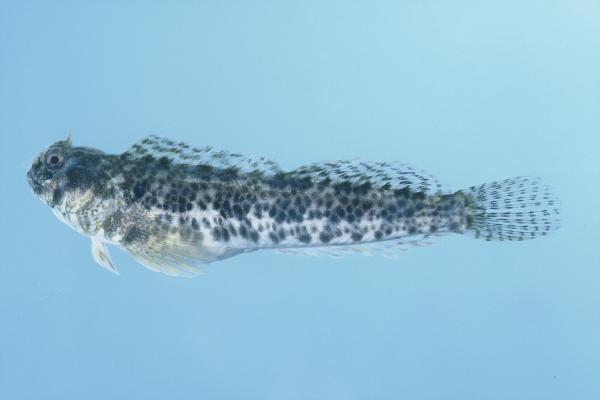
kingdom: Animalia
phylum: Chordata
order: Perciformes
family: Blenniidae
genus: Entomacrodus
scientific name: Entomacrodus striatus
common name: Pearly rockskipper
